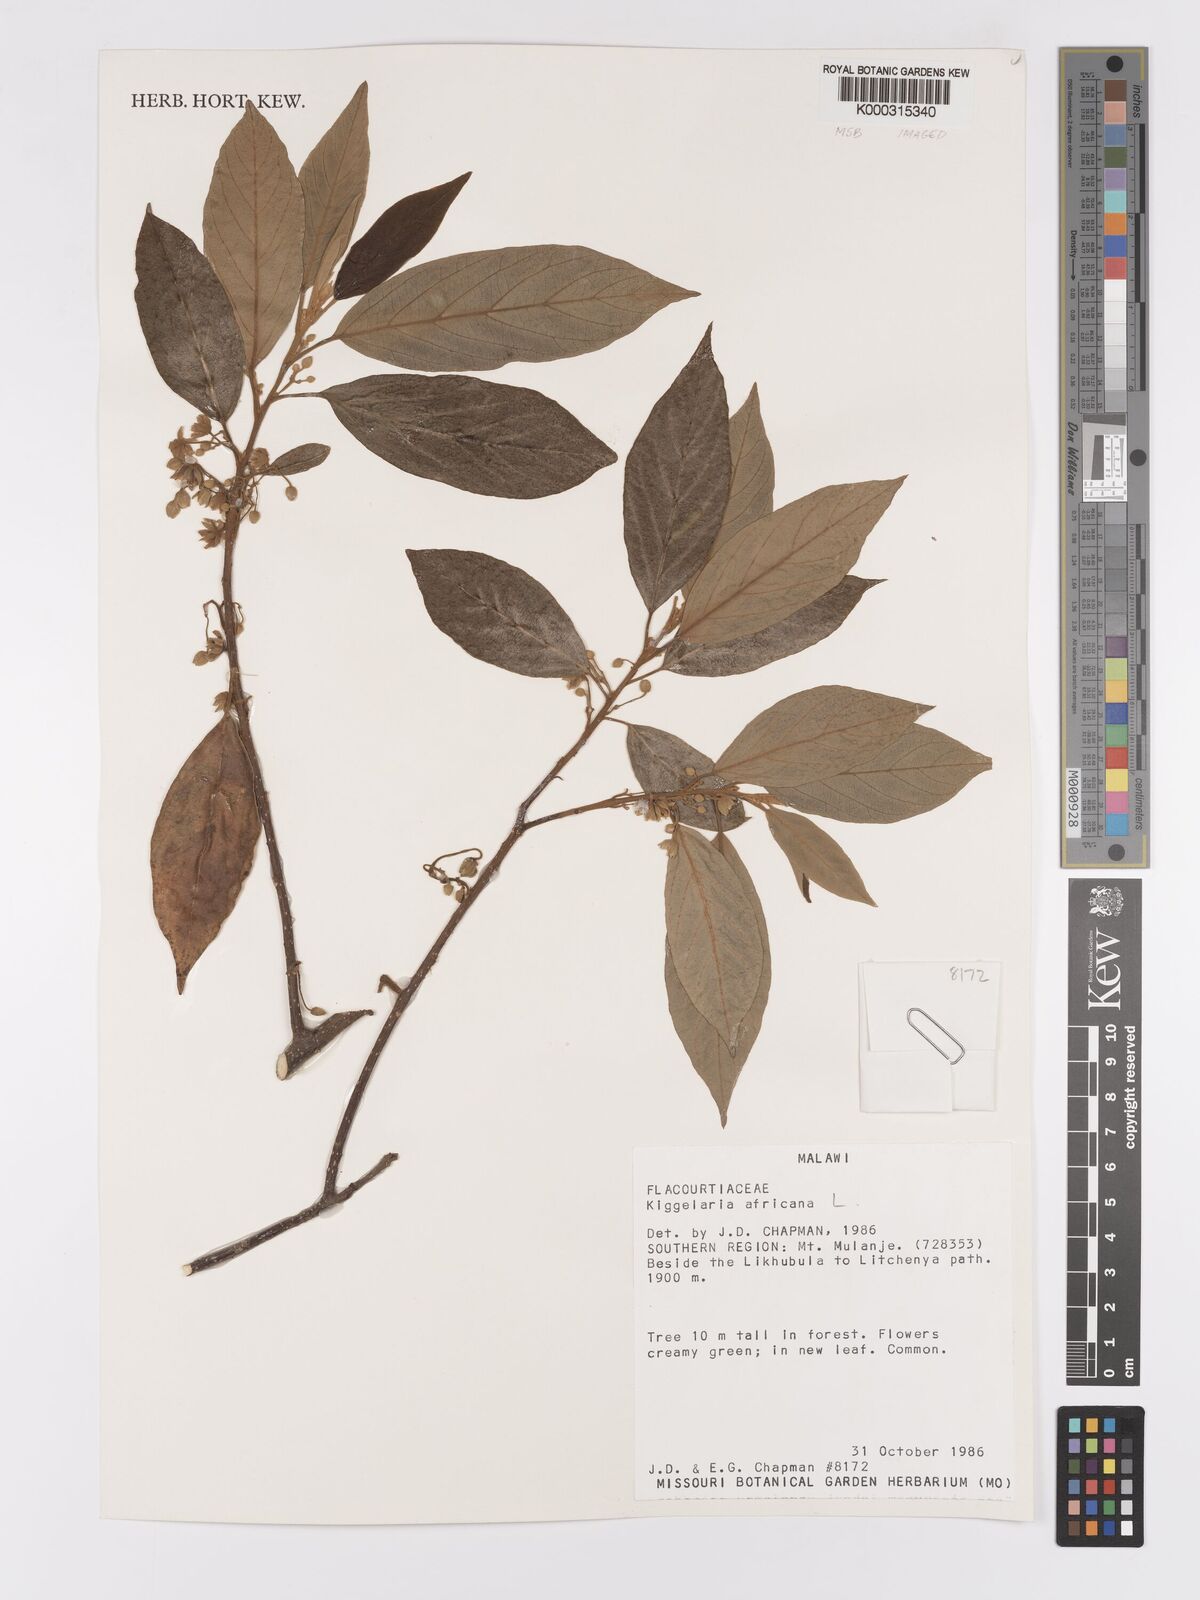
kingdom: Plantae
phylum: Tracheophyta
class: Magnoliopsida
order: Malpighiales
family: Achariaceae
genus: Kiggelaria
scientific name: Kiggelaria africana
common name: Wild peach
